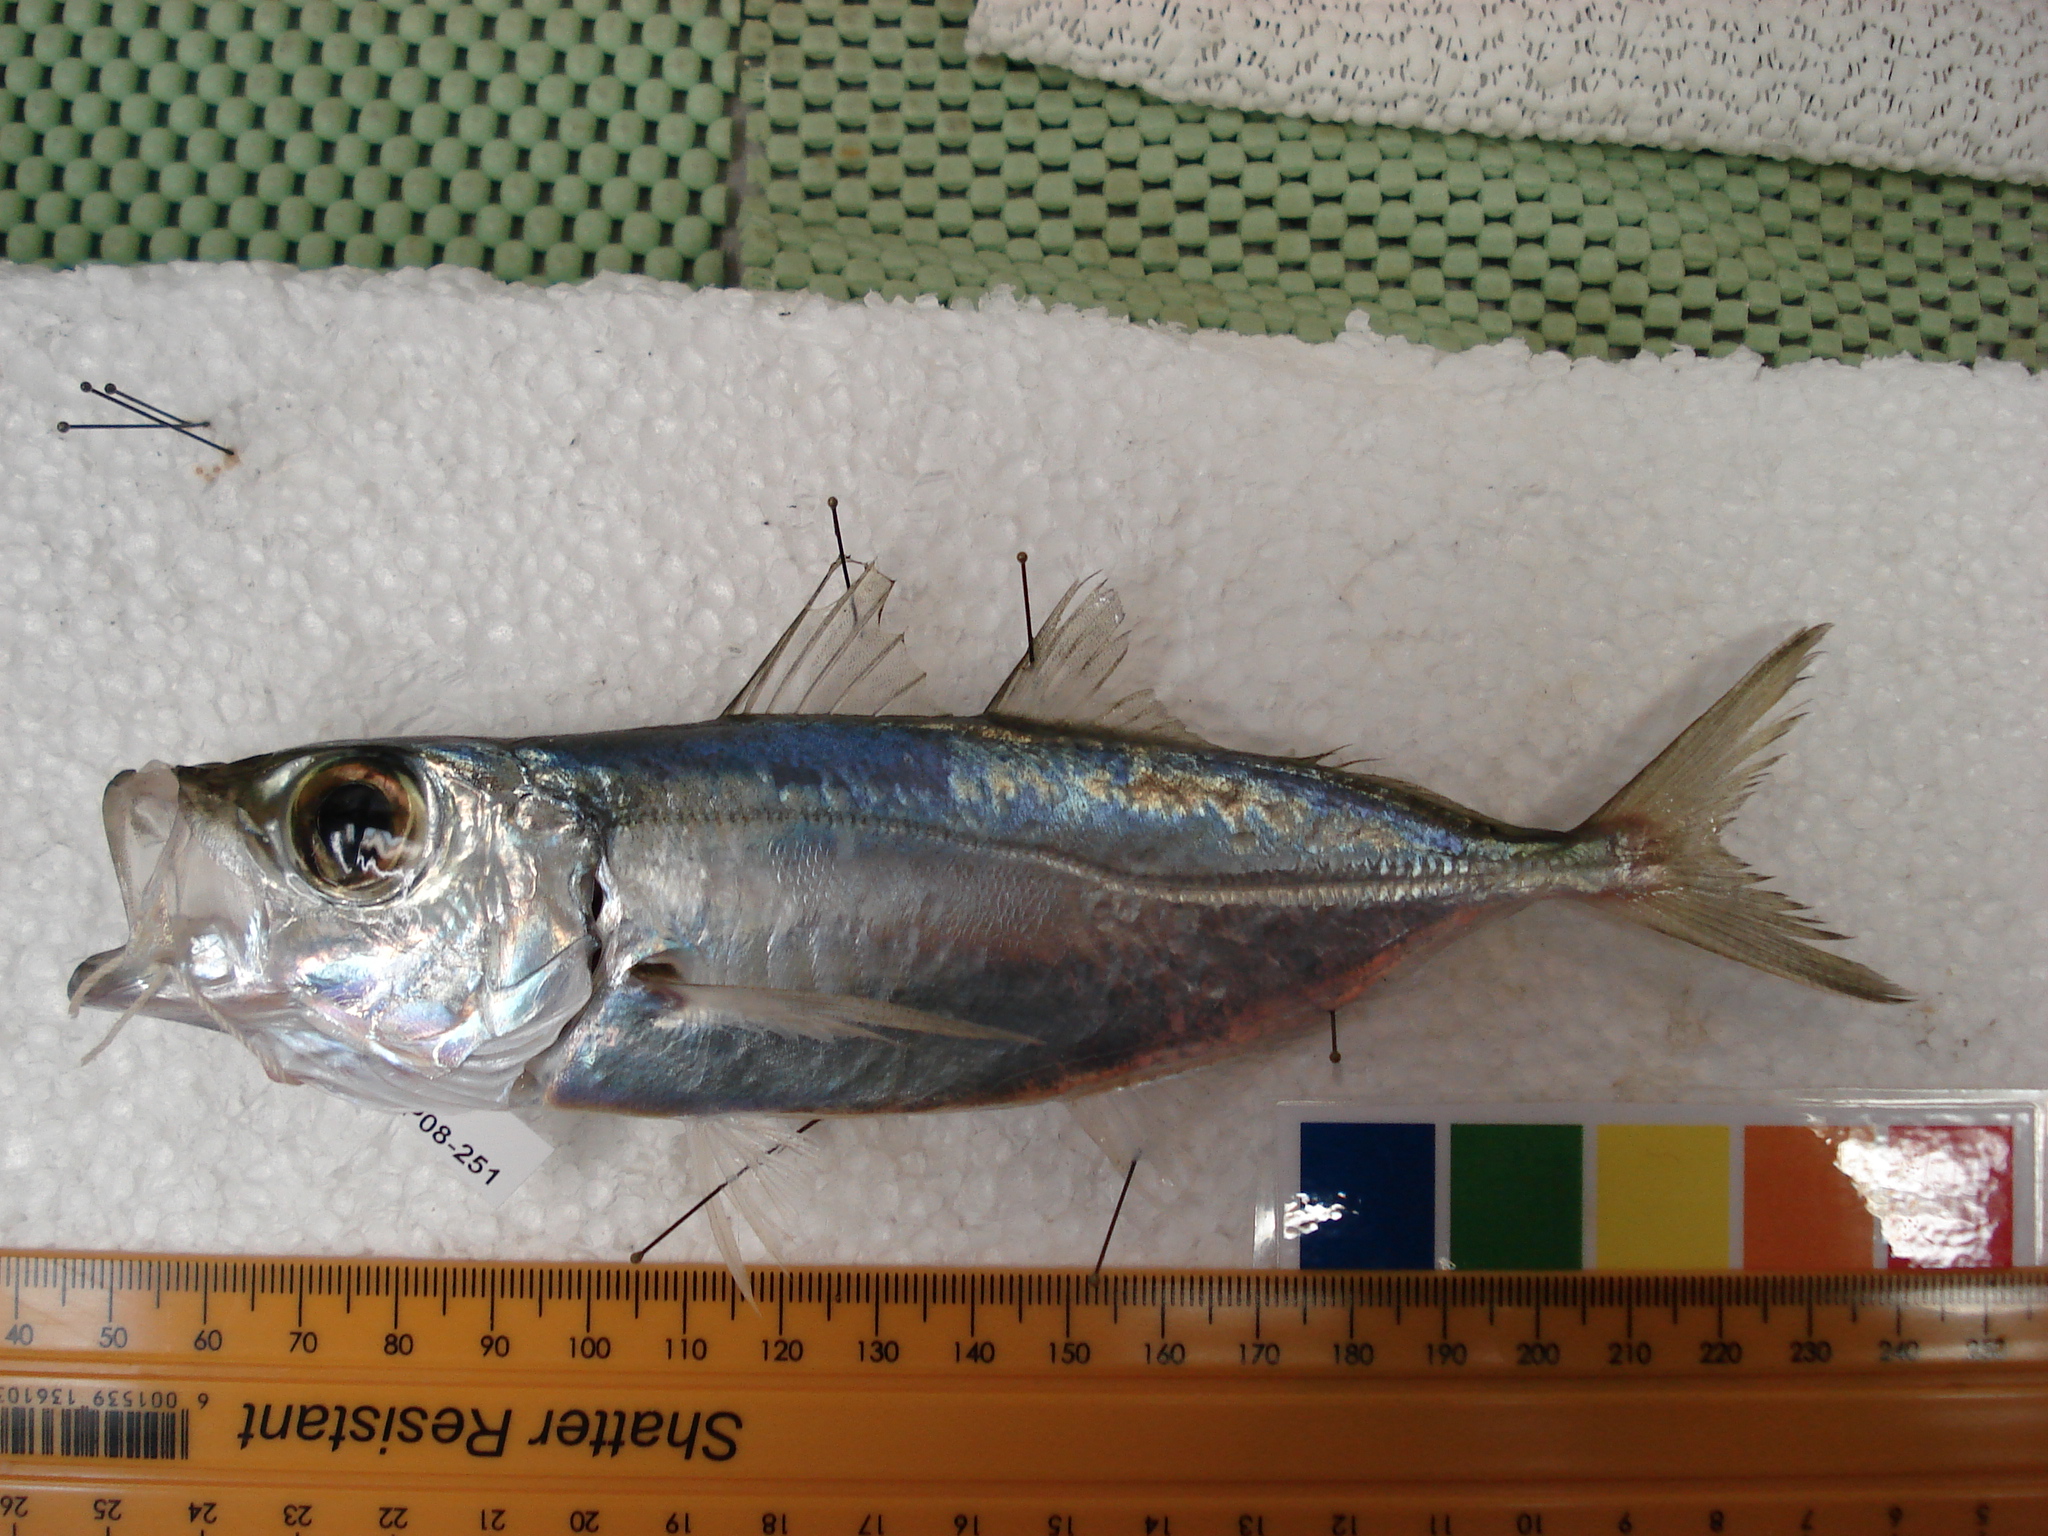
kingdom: Animalia
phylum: Chordata
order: Perciformes
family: Carangidae
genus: Selar
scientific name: Selar crumenophthalmus
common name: Bigeye scad
